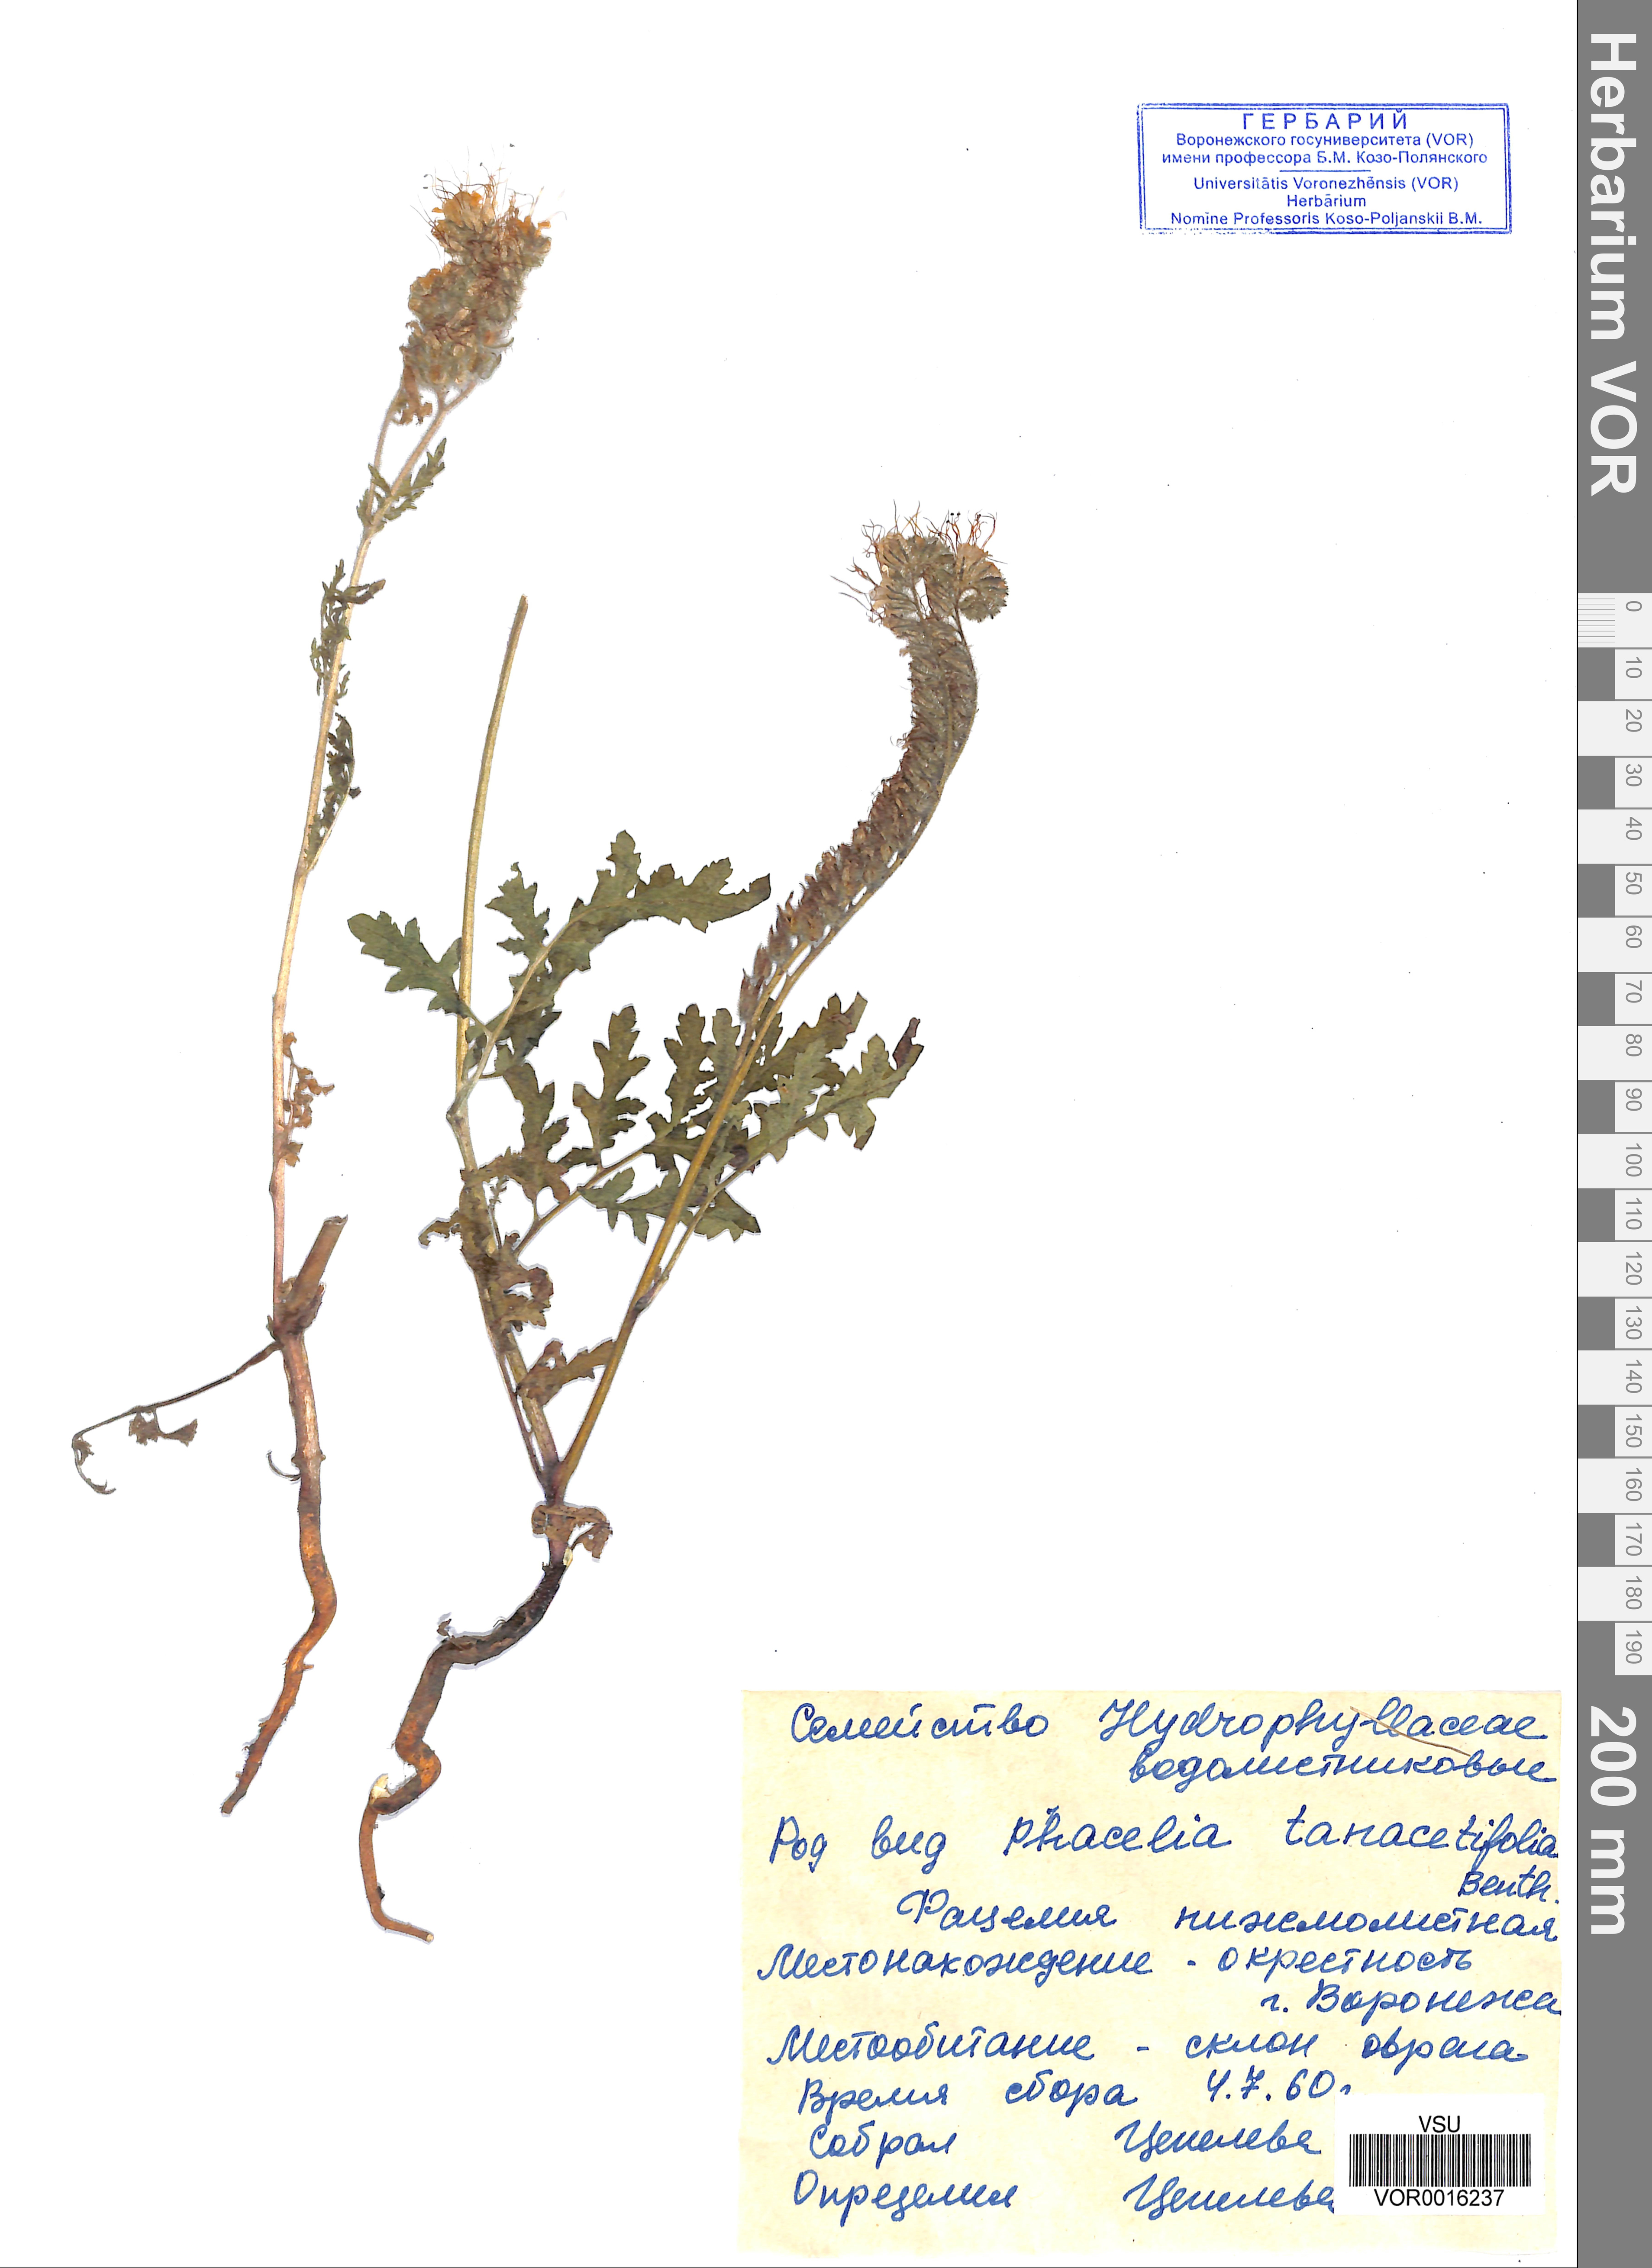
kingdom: Plantae
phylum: Tracheophyta
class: Magnoliopsida
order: Boraginales
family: Hydrophyllaceae
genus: Phacelia
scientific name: Phacelia tanacetifolia
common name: Phacelia
